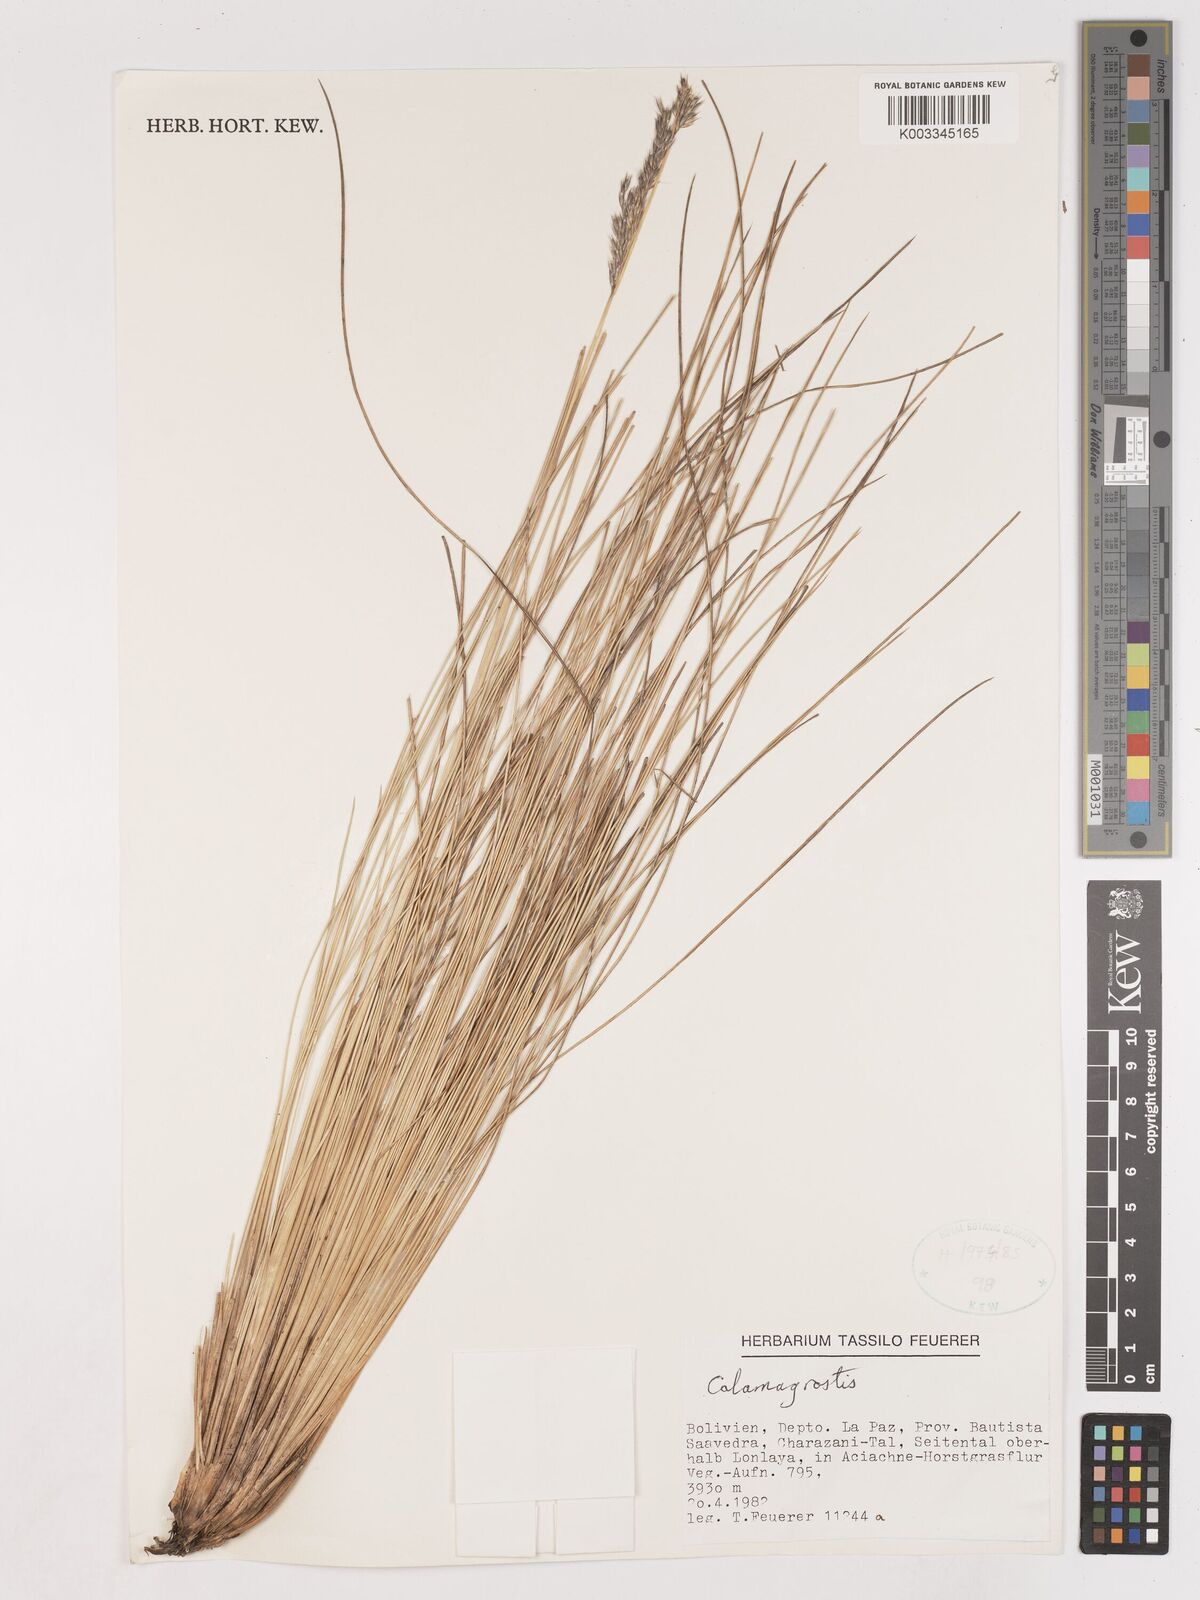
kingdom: Plantae
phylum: Tracheophyta
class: Liliopsida
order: Poales
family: Poaceae
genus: Calamagrostis
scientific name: Calamagrostis
